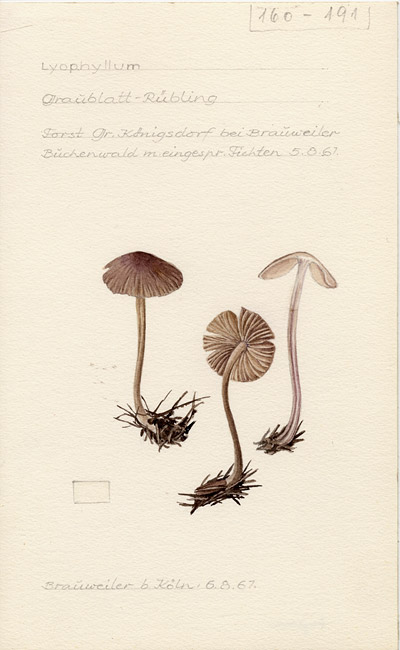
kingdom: Fungi
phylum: Basidiomycota
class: Agaricomycetes
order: Agaricales
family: Lyophyllaceae
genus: Lyophyllum
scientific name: Lyophyllum
